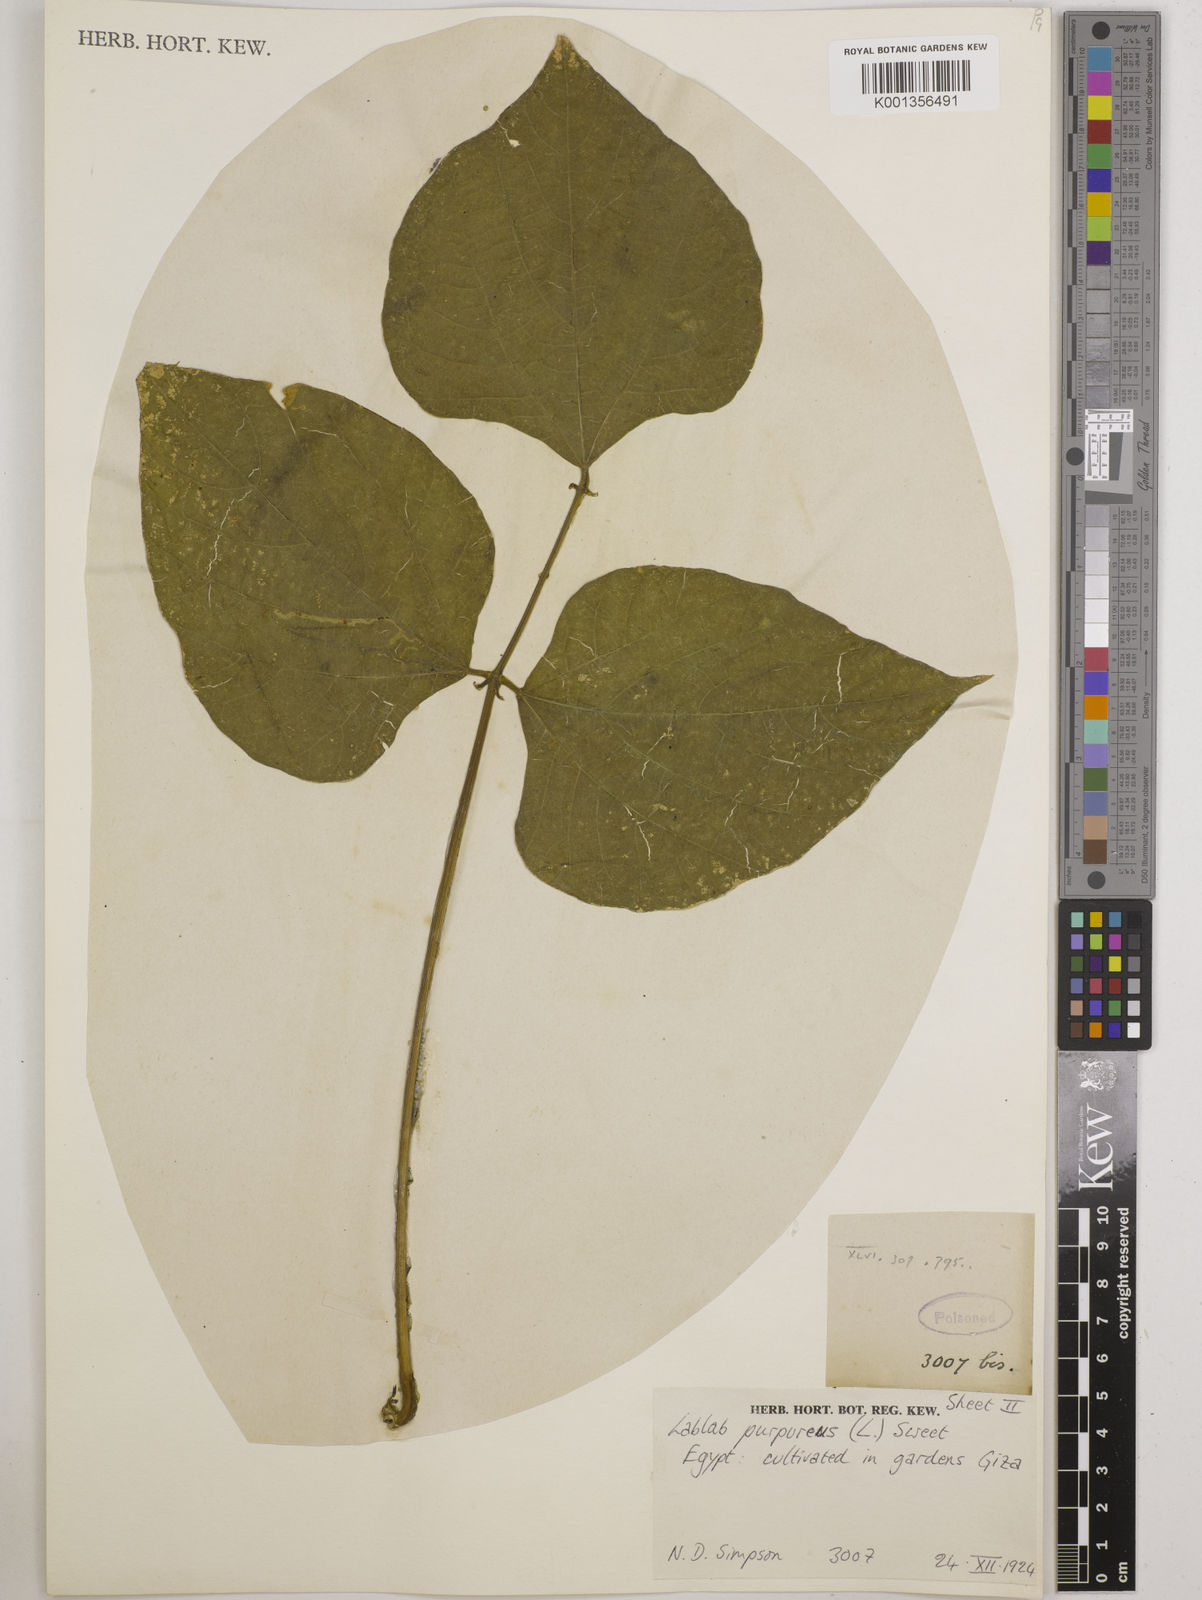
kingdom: Plantae
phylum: Tracheophyta
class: Magnoliopsida
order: Fabales
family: Fabaceae
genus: Lablab
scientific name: Lablab purpureus
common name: Lablab-bean
